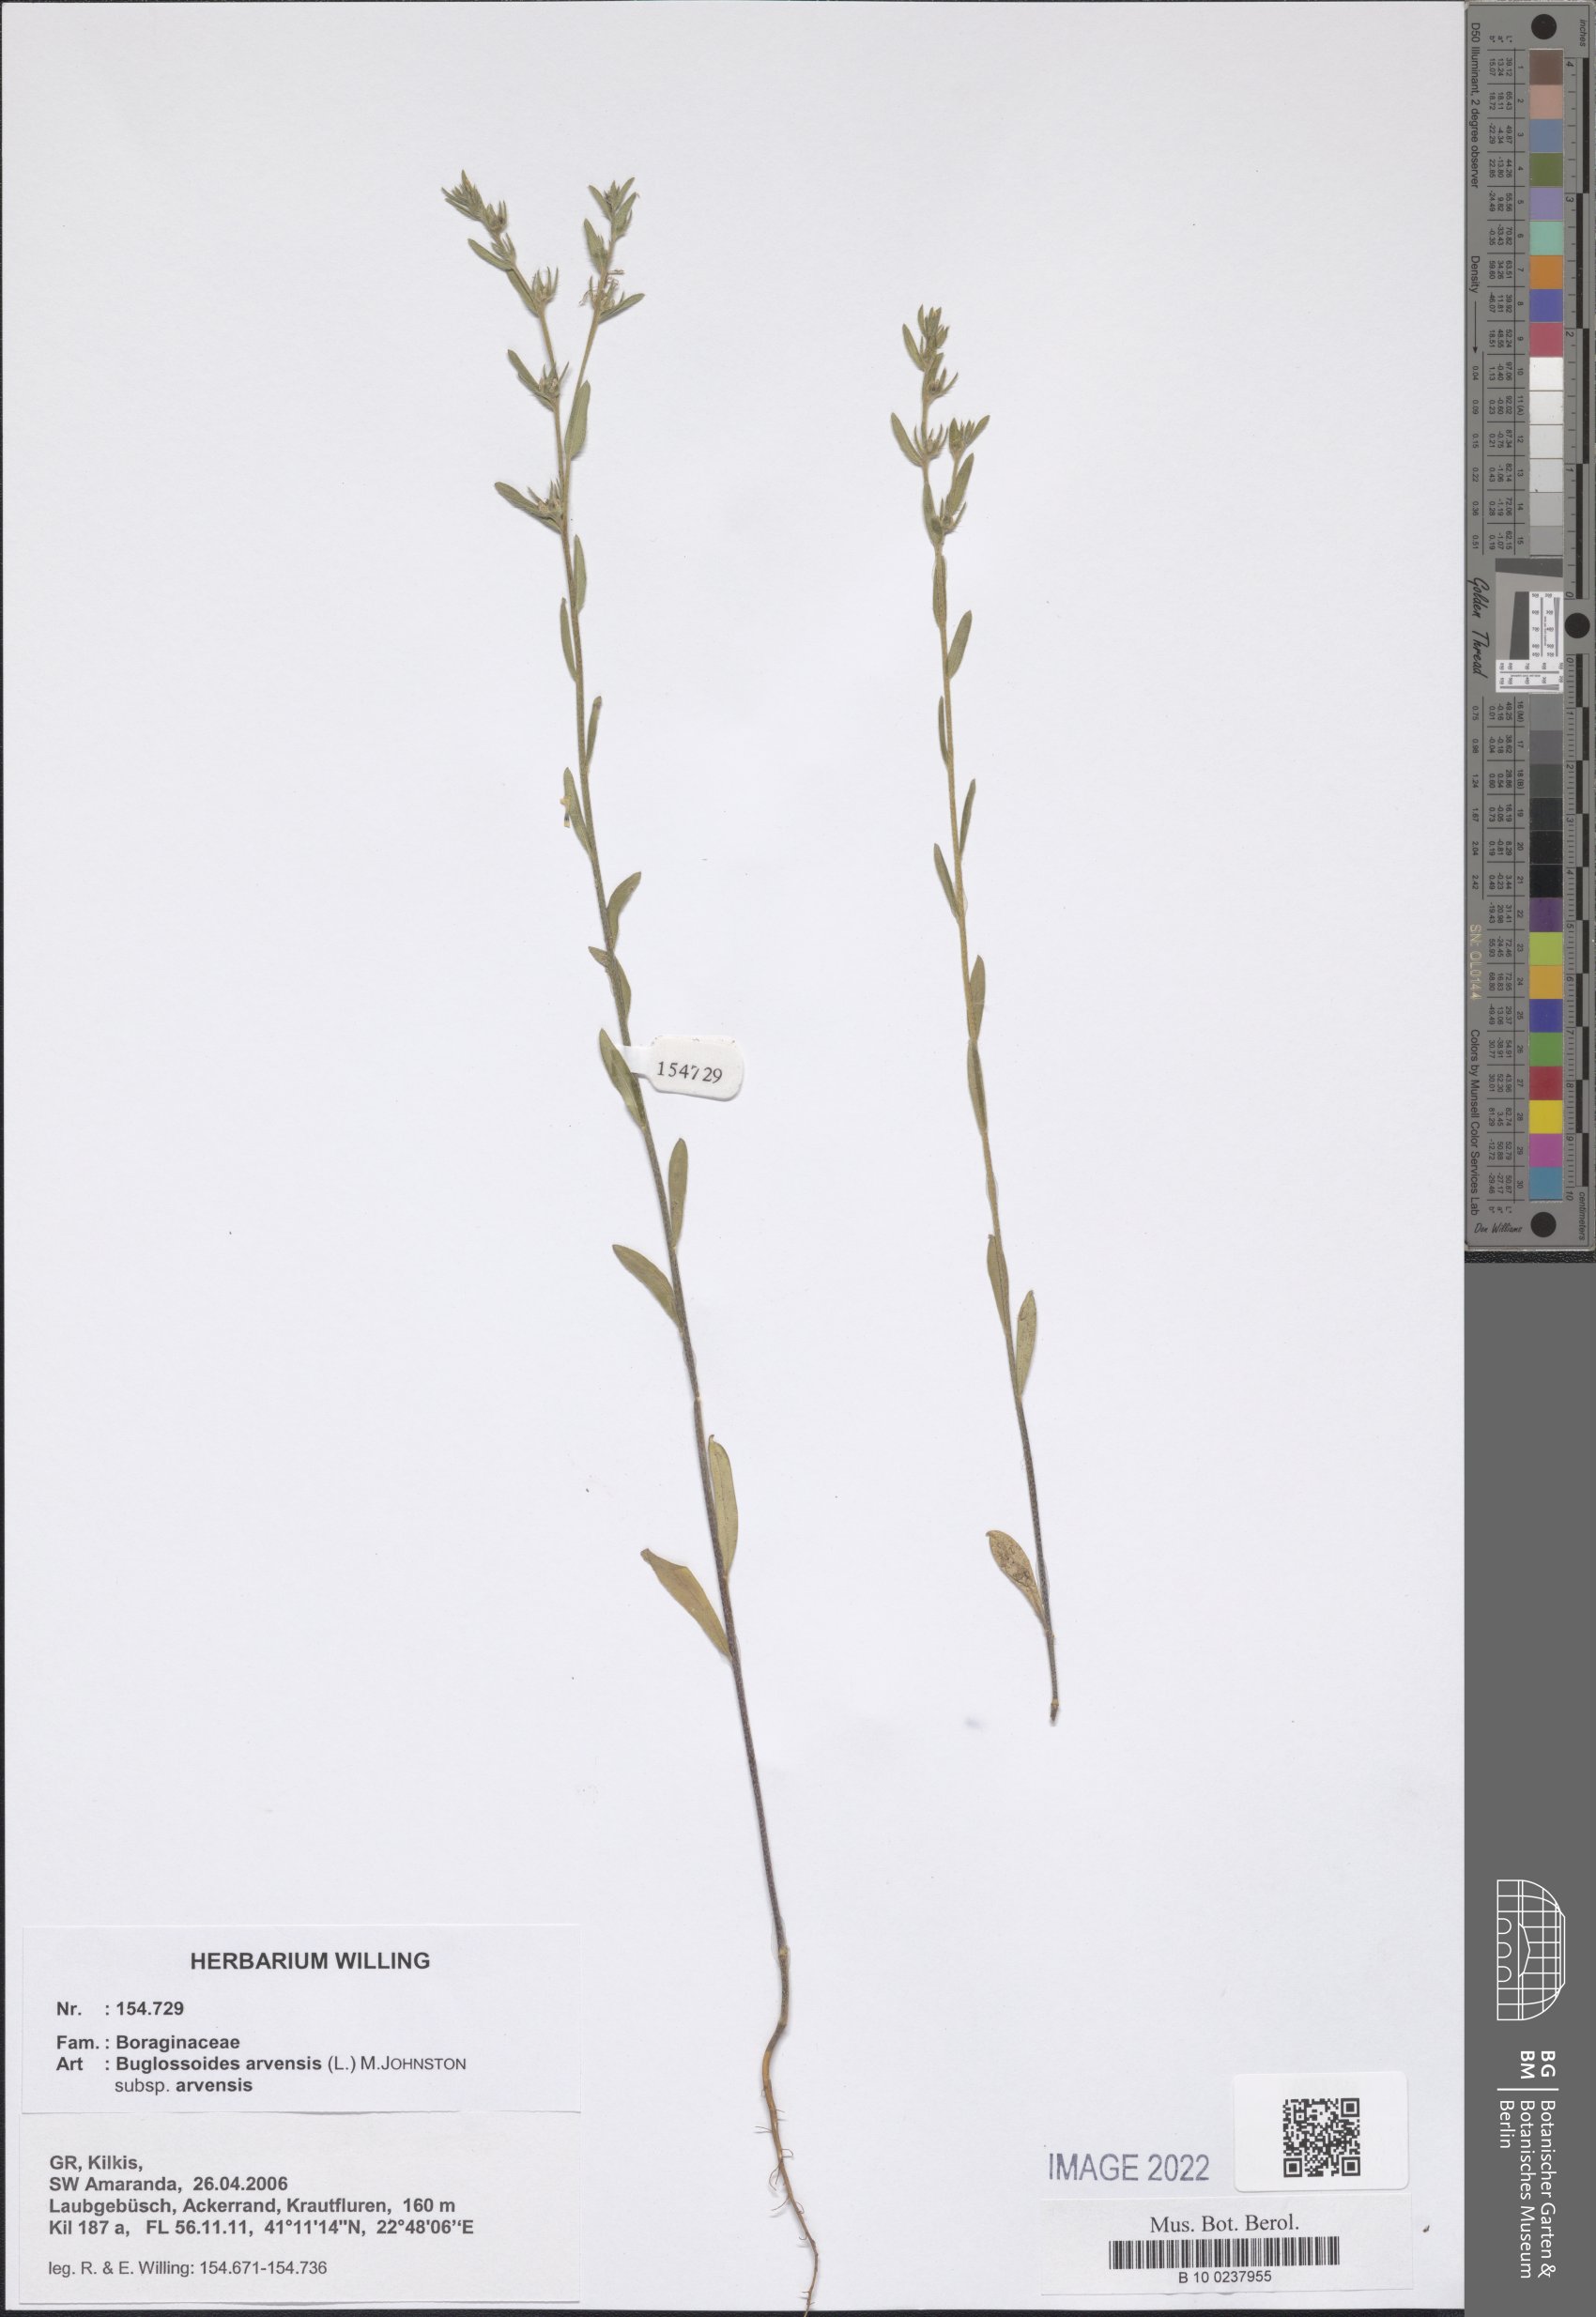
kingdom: Plantae
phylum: Tracheophyta
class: Magnoliopsida
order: Boraginales
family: Boraginaceae
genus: Buglossoides
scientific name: Buglossoides arvensis
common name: Corn gromwell
